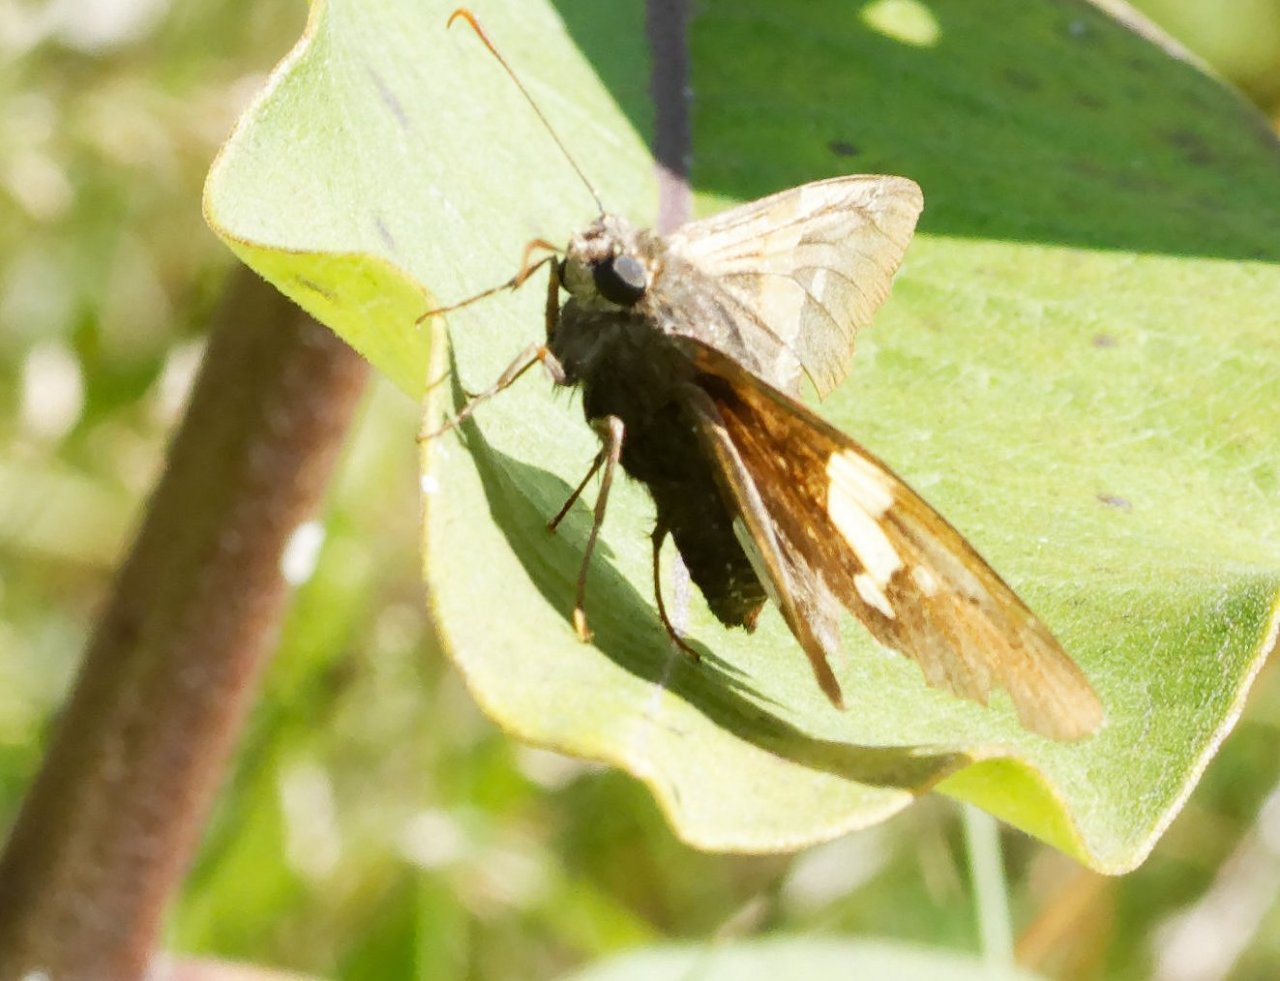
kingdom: Animalia
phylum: Arthropoda
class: Insecta
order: Lepidoptera
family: Hesperiidae
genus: Epargyreus
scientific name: Epargyreus clarus
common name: Silver-spotted Skipper
